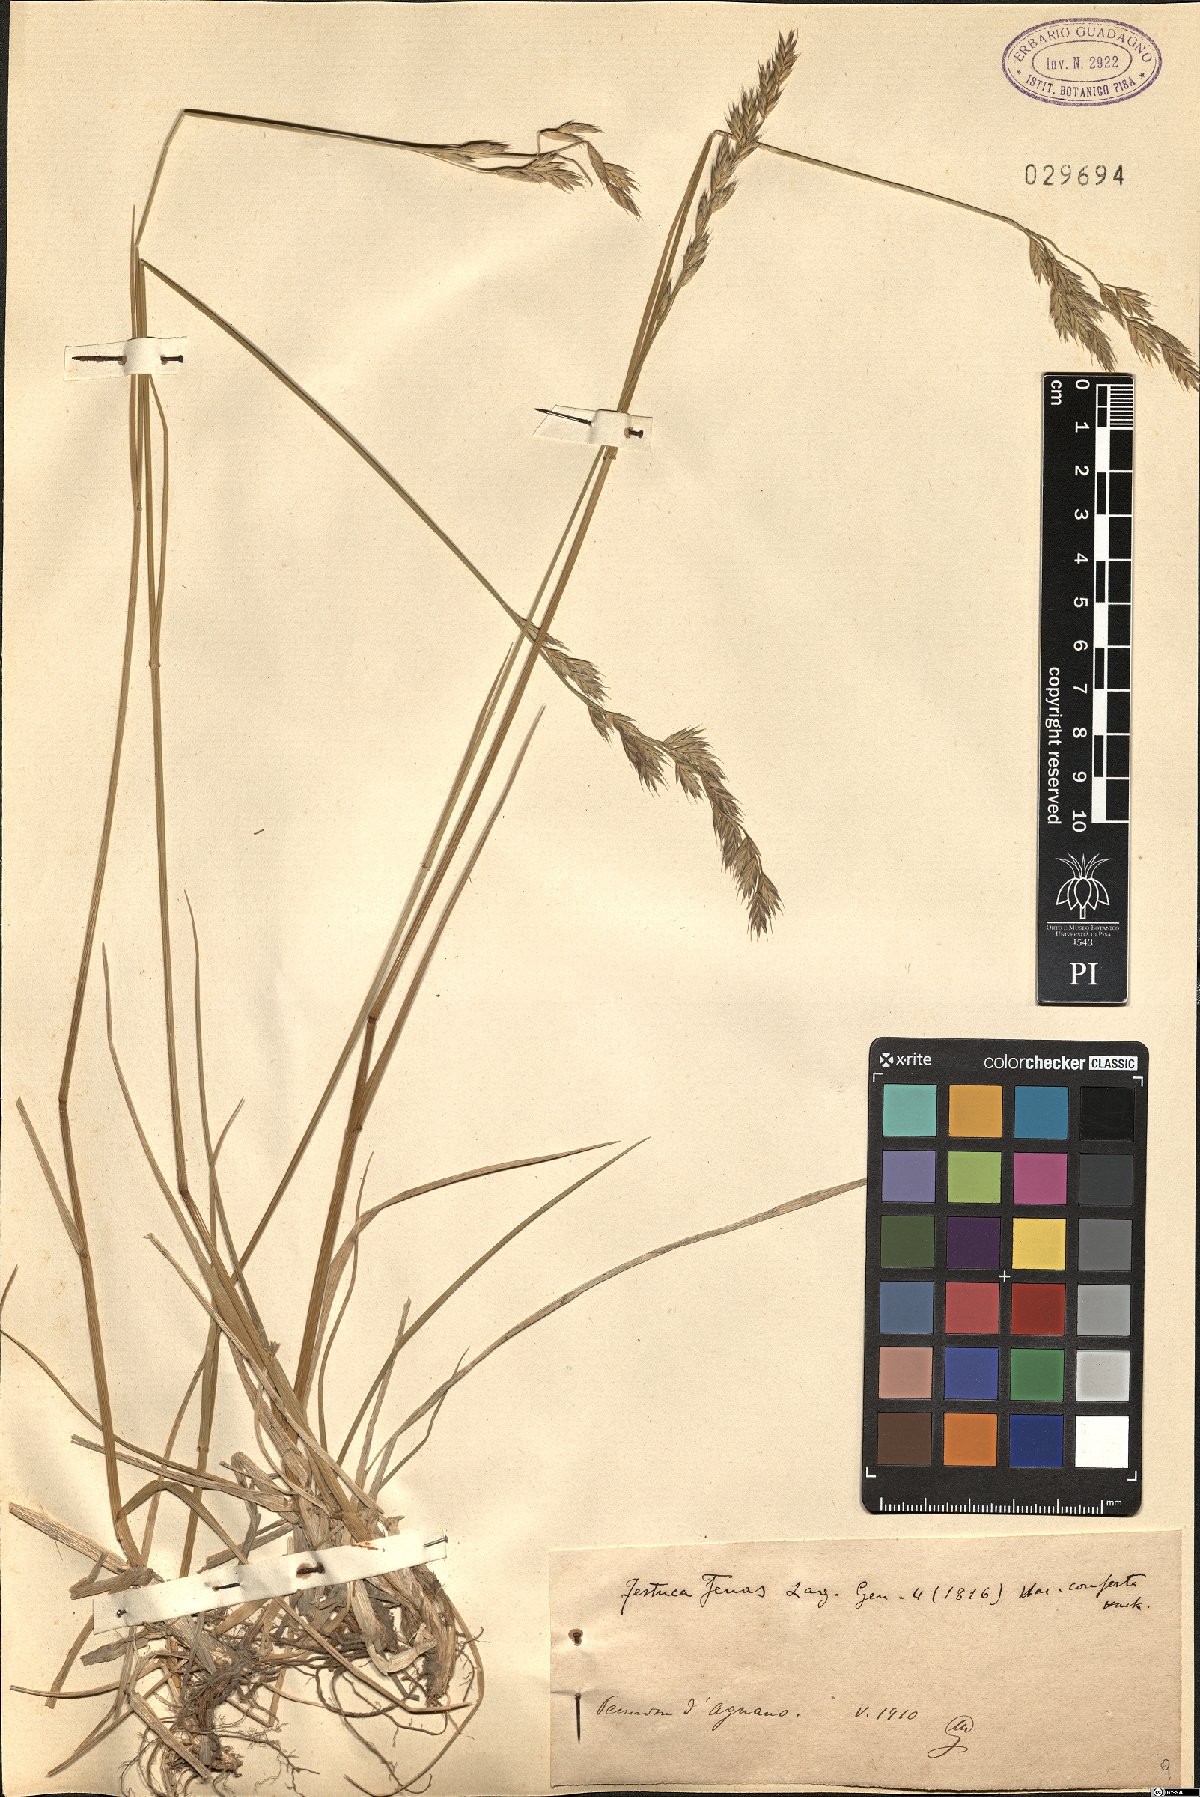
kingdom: Plantae
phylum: Tracheophyta
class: Liliopsida
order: Poales
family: Poaceae
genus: Lolium
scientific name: Lolium arundinaceum
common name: Reed fescue
